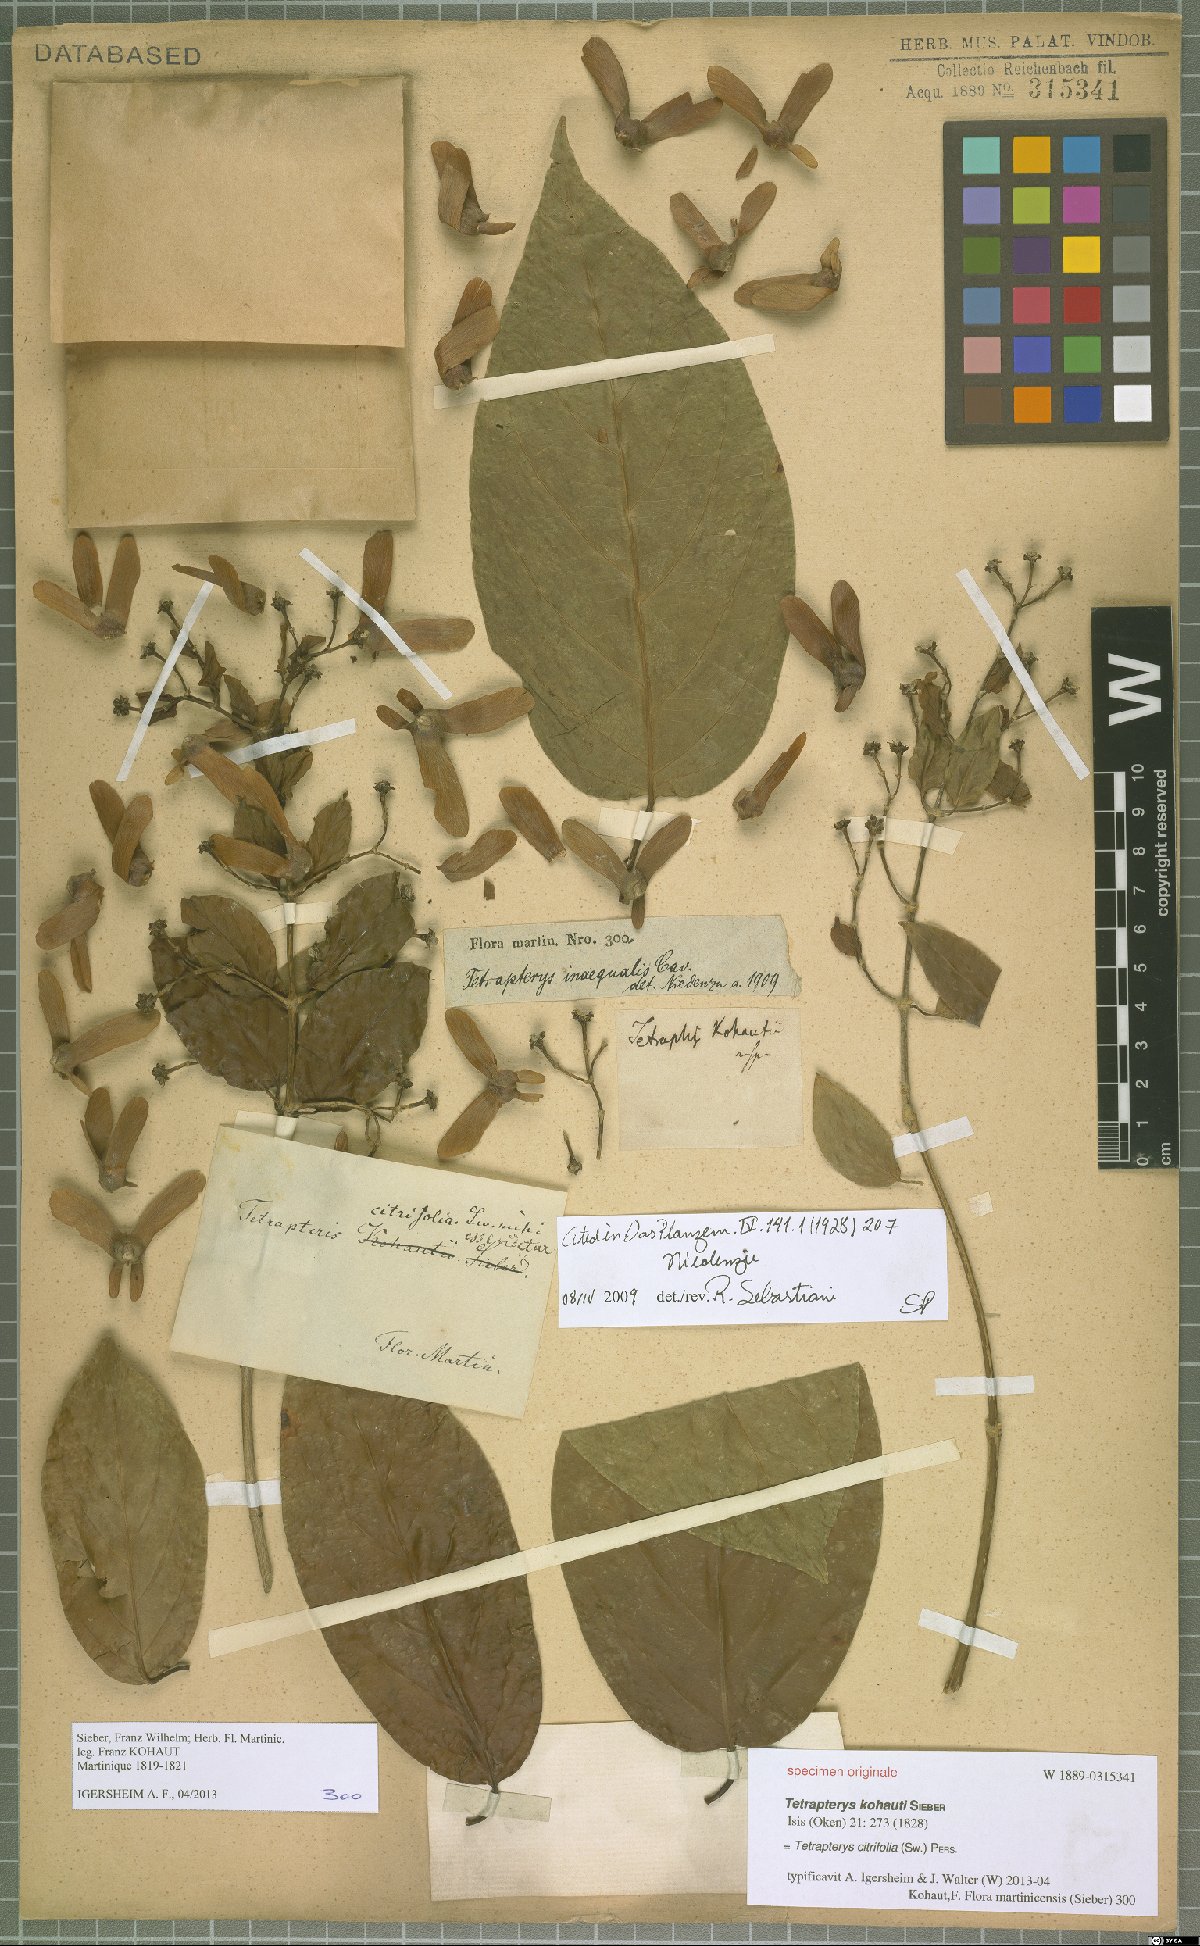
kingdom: Plantae
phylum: Tracheophyta
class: Magnoliopsida
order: Malpighiales
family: Malpighiaceae
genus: Tetrapterys
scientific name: Tetrapterys citrifolia
